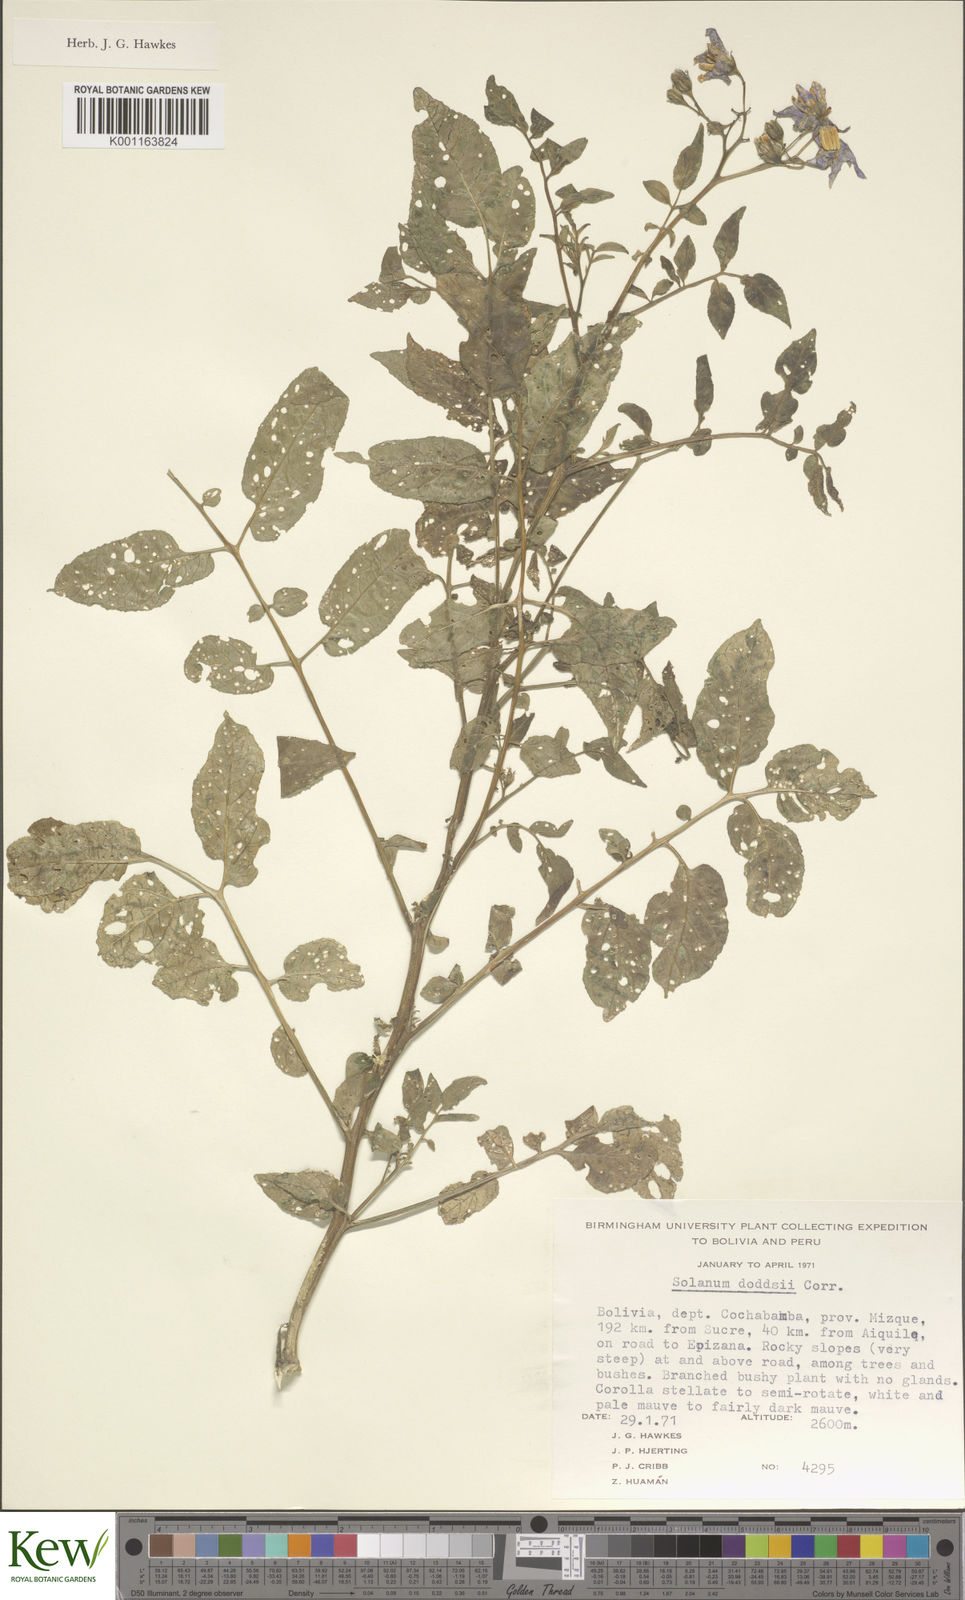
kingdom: Plantae
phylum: Tracheophyta
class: Magnoliopsida
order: Solanales
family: Solanaceae
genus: Solanum
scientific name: Solanum doddsii
